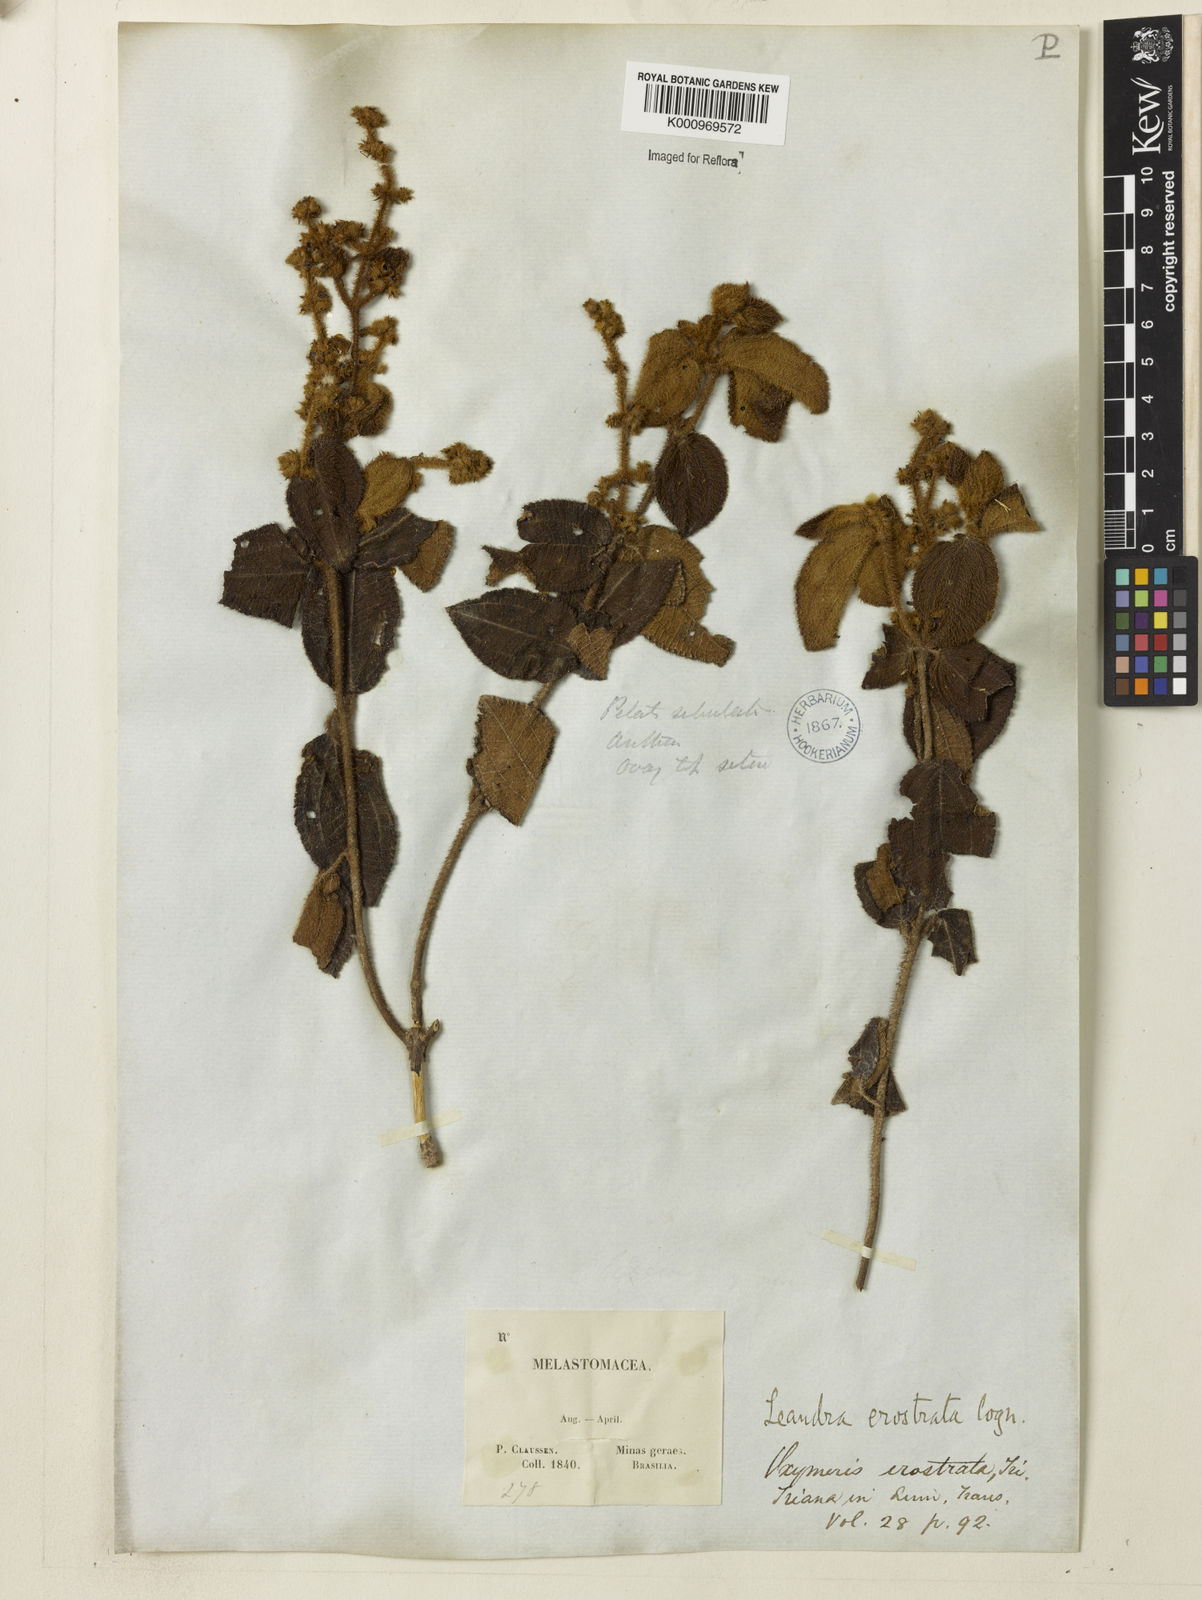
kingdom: Plantae
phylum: Tracheophyta
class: Magnoliopsida
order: Myrtales
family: Melastomataceae
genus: Miconia
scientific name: Miconia erostrata
